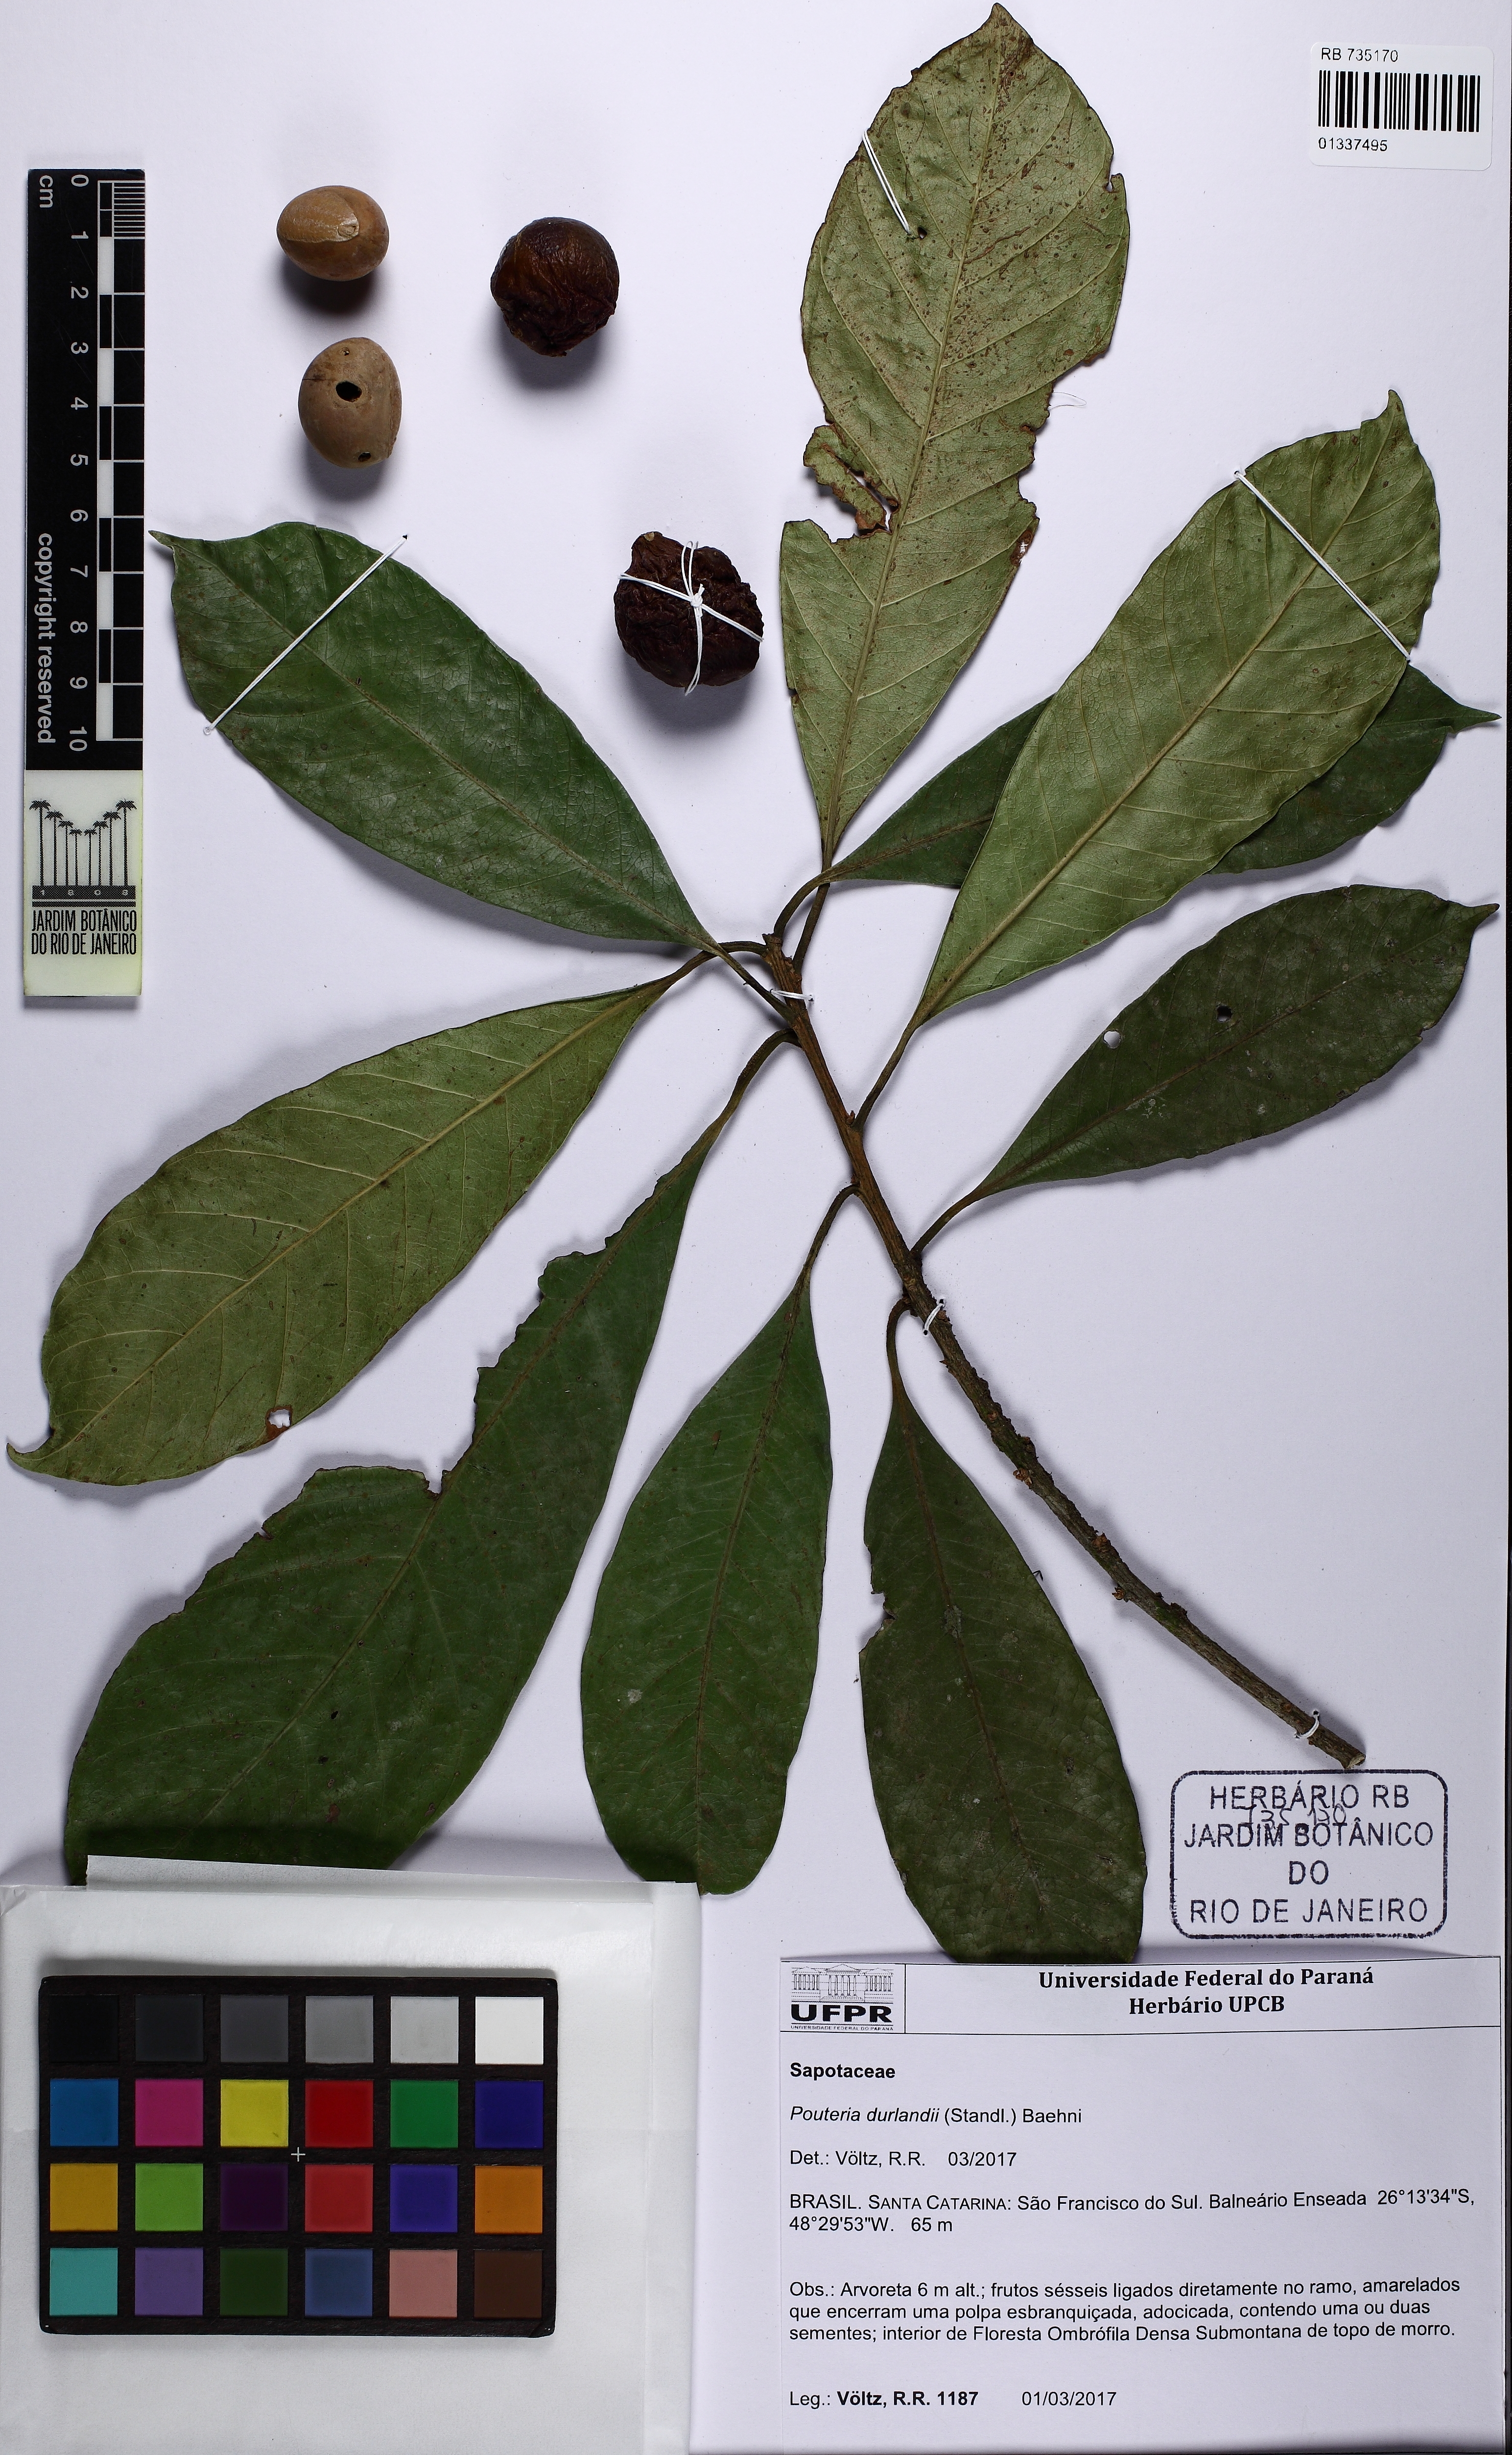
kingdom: Plantae
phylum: Tracheophyta
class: Magnoliopsida
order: Ericales
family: Sapotaceae
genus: Pouteria
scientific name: Pouteria durlandii
